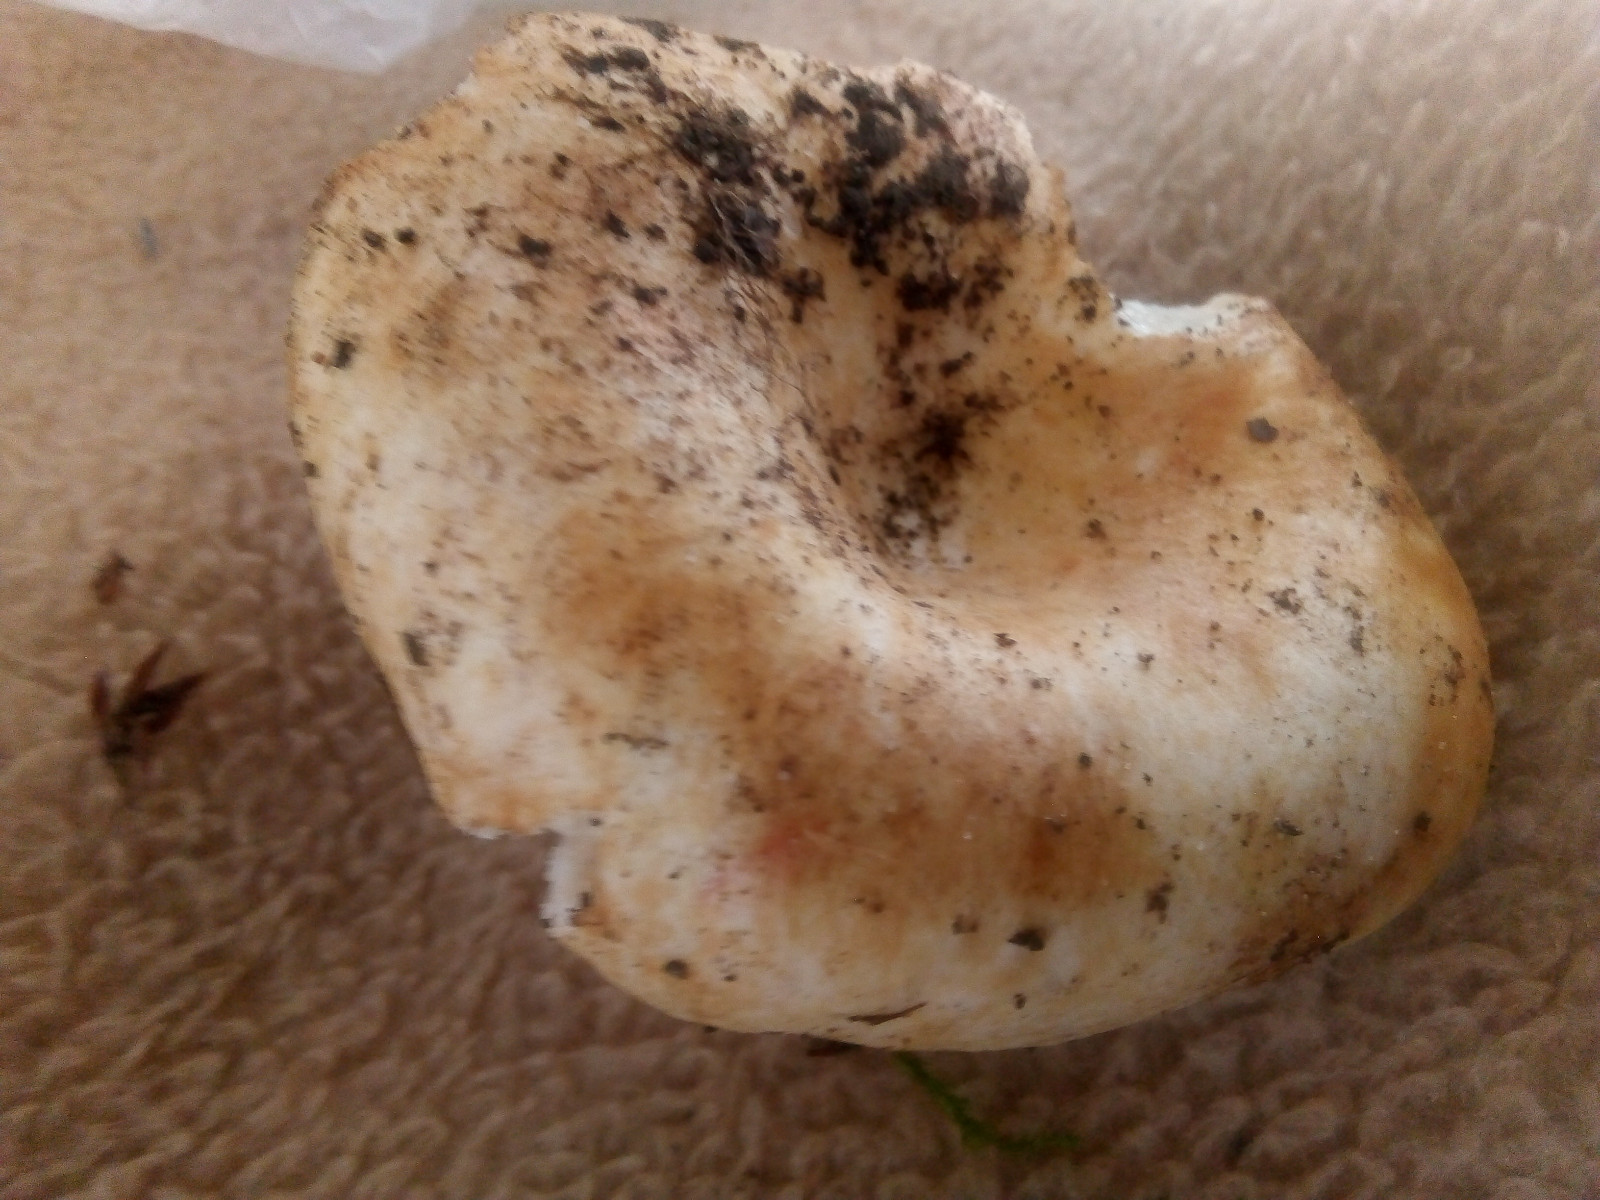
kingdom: Fungi
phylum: Basidiomycota
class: Agaricomycetes
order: Russulales
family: Russulaceae
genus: Russula
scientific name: Russula delica
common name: almindelig tragt-skørhat
